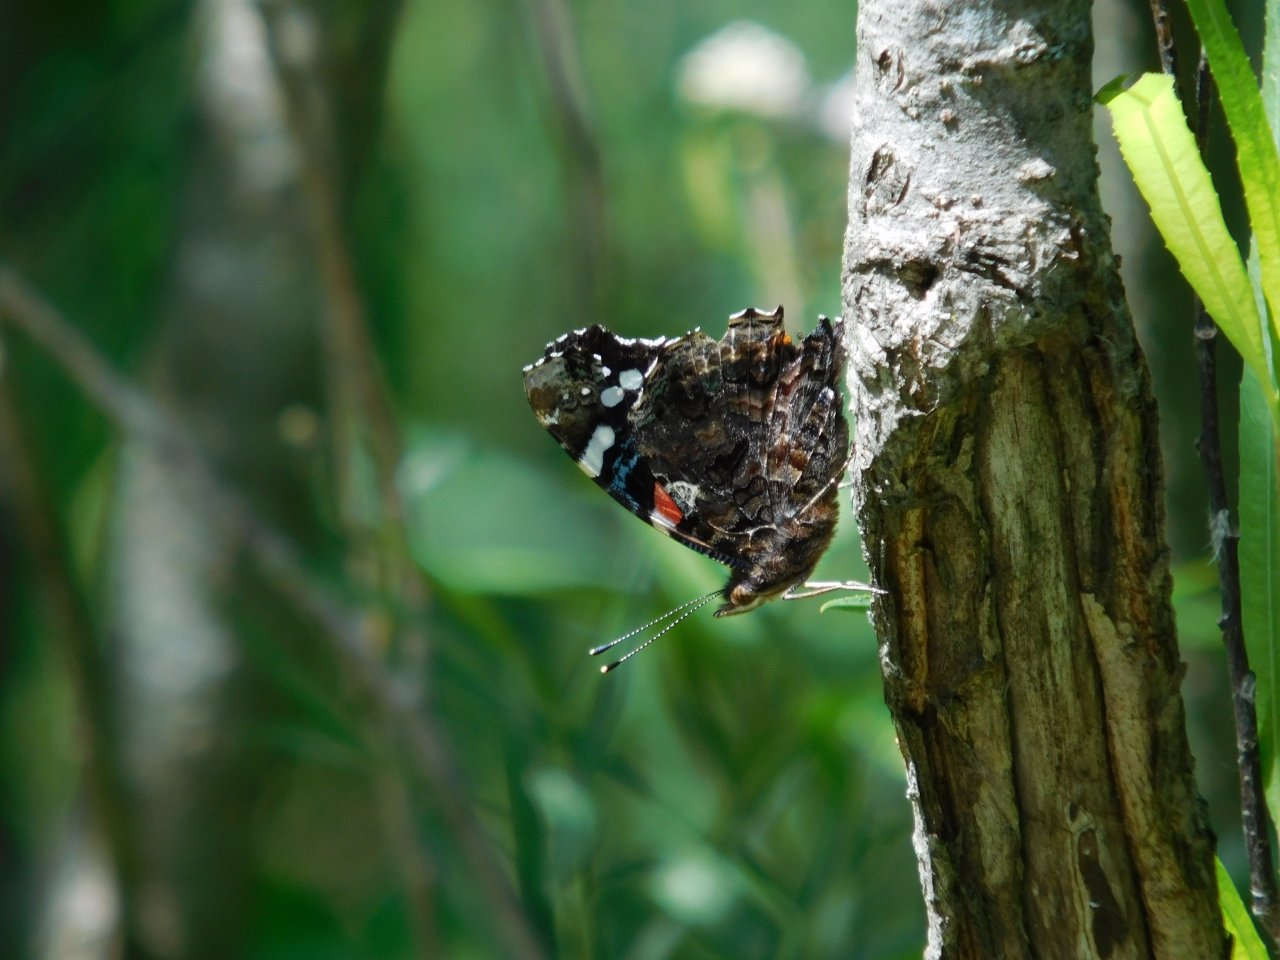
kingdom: Animalia
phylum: Arthropoda
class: Insecta
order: Lepidoptera
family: Nymphalidae
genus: Vanessa
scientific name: Vanessa atalanta
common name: Red Admiral
